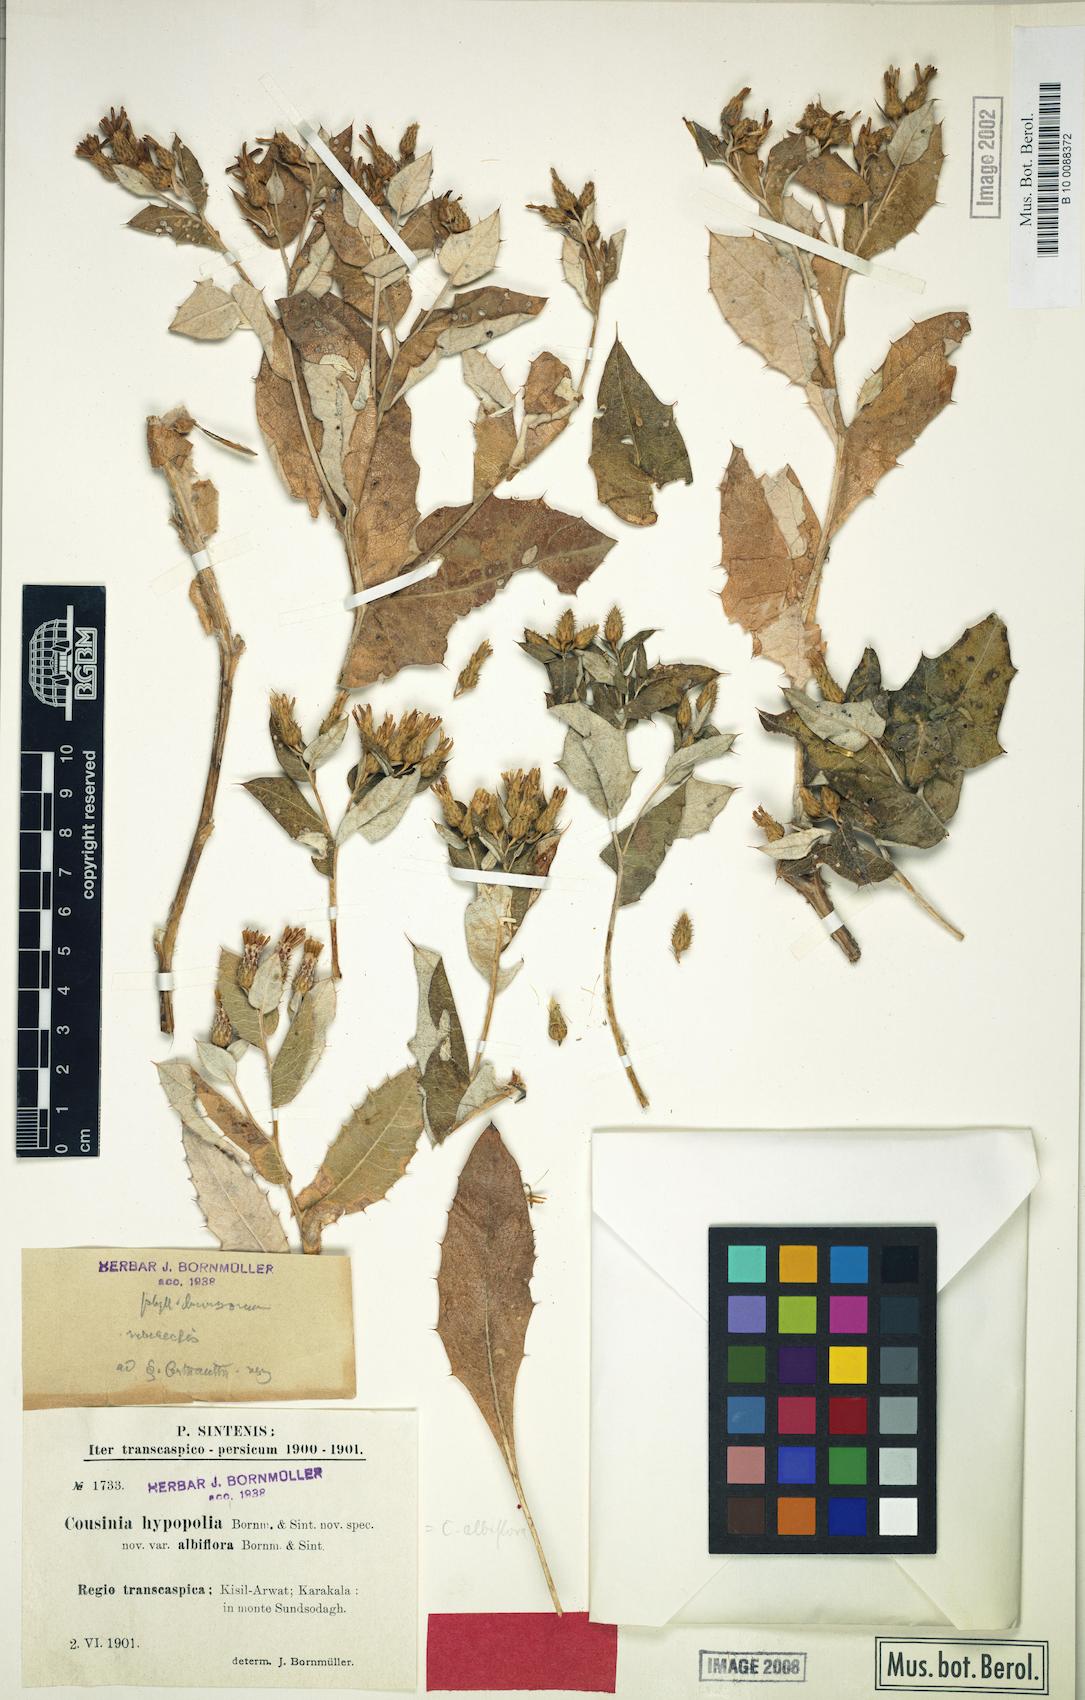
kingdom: Plantae
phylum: Tracheophyta
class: Magnoliopsida
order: Asterales
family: Asteraceae
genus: Cousinia
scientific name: Cousinia albiflora
